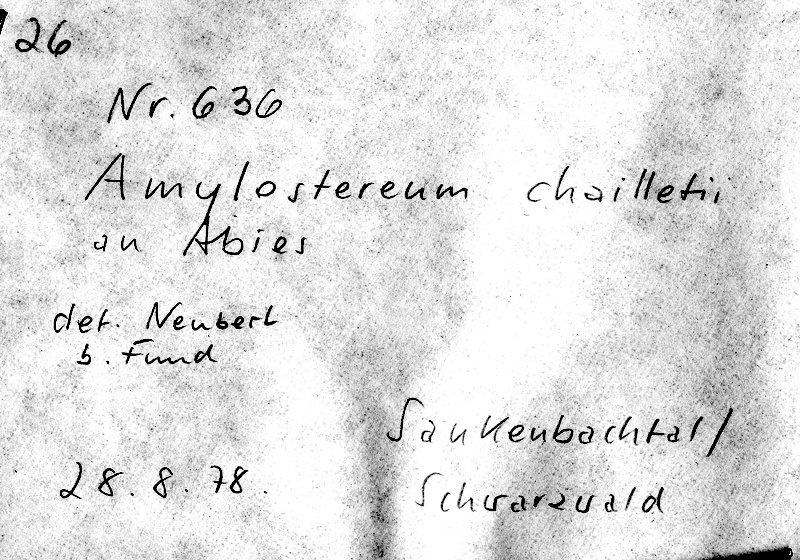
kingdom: Plantae
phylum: Tracheophyta
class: Pinopsida
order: Pinales
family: Pinaceae
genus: Abies
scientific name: Abies
